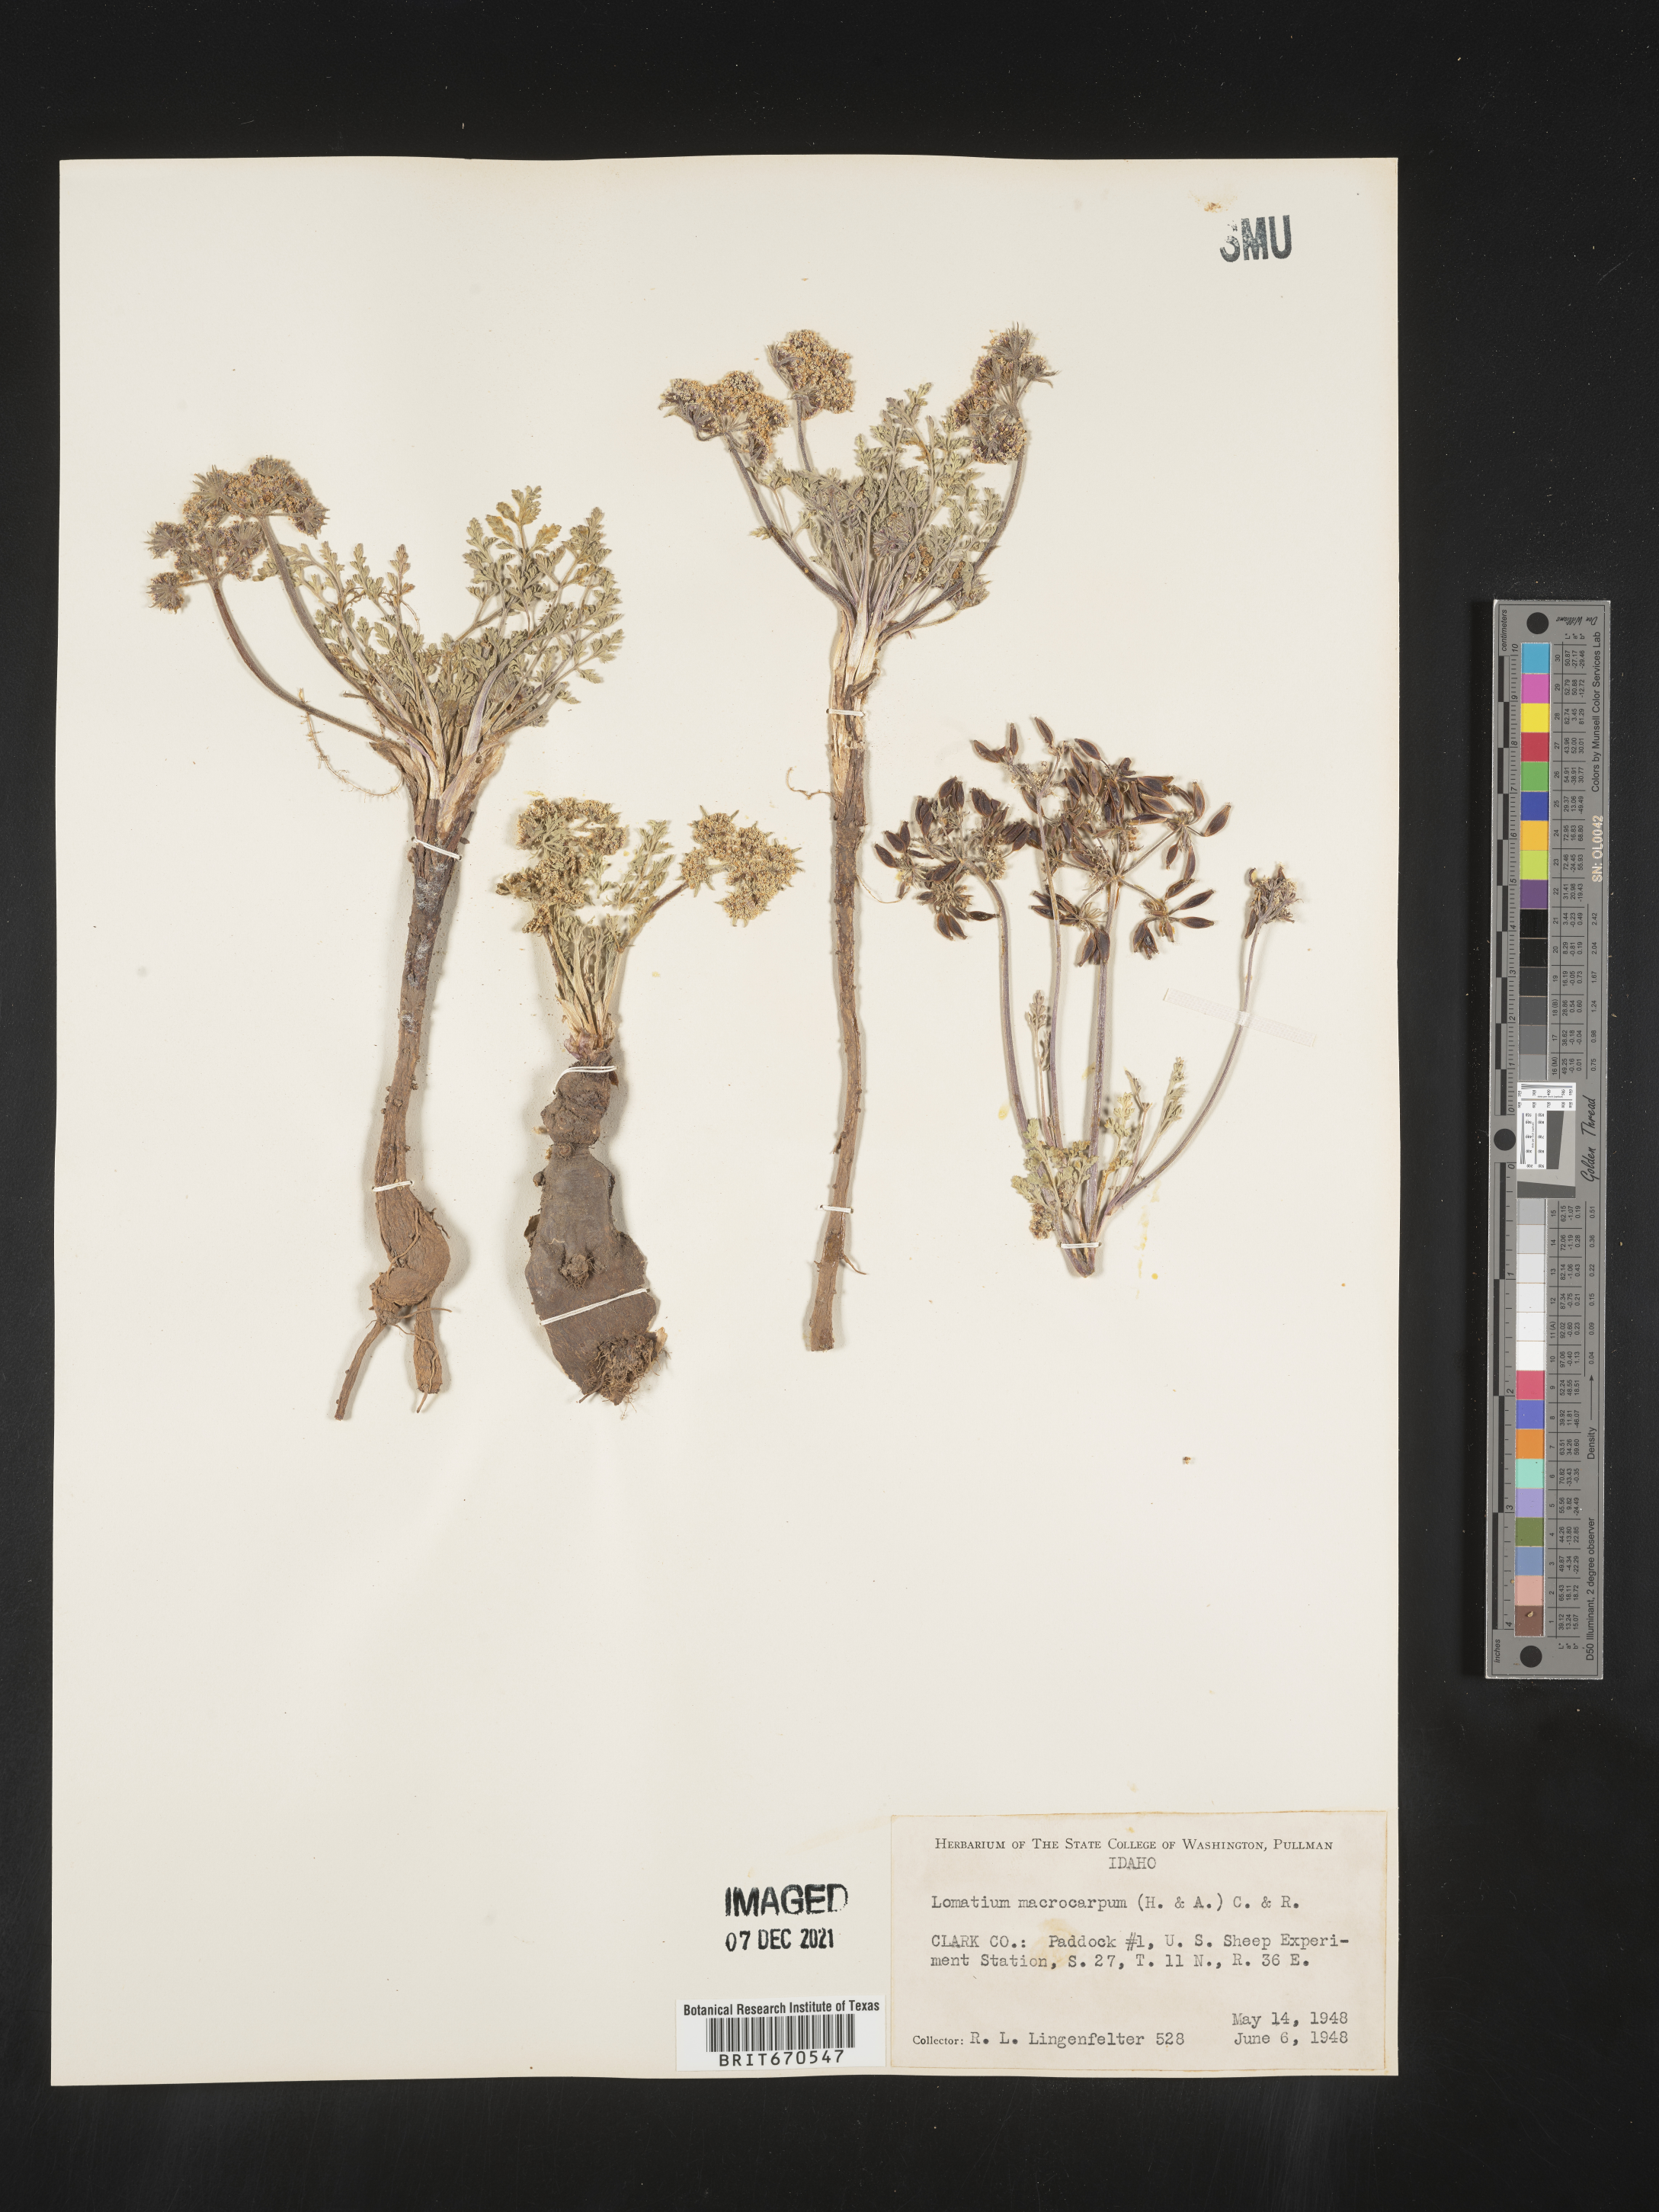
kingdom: Plantae
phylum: Tracheophyta
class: Magnoliopsida
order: Apiales
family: Apiaceae
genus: Lomatium
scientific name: Lomatium macrocarpum
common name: Big-seed biscuitroot
